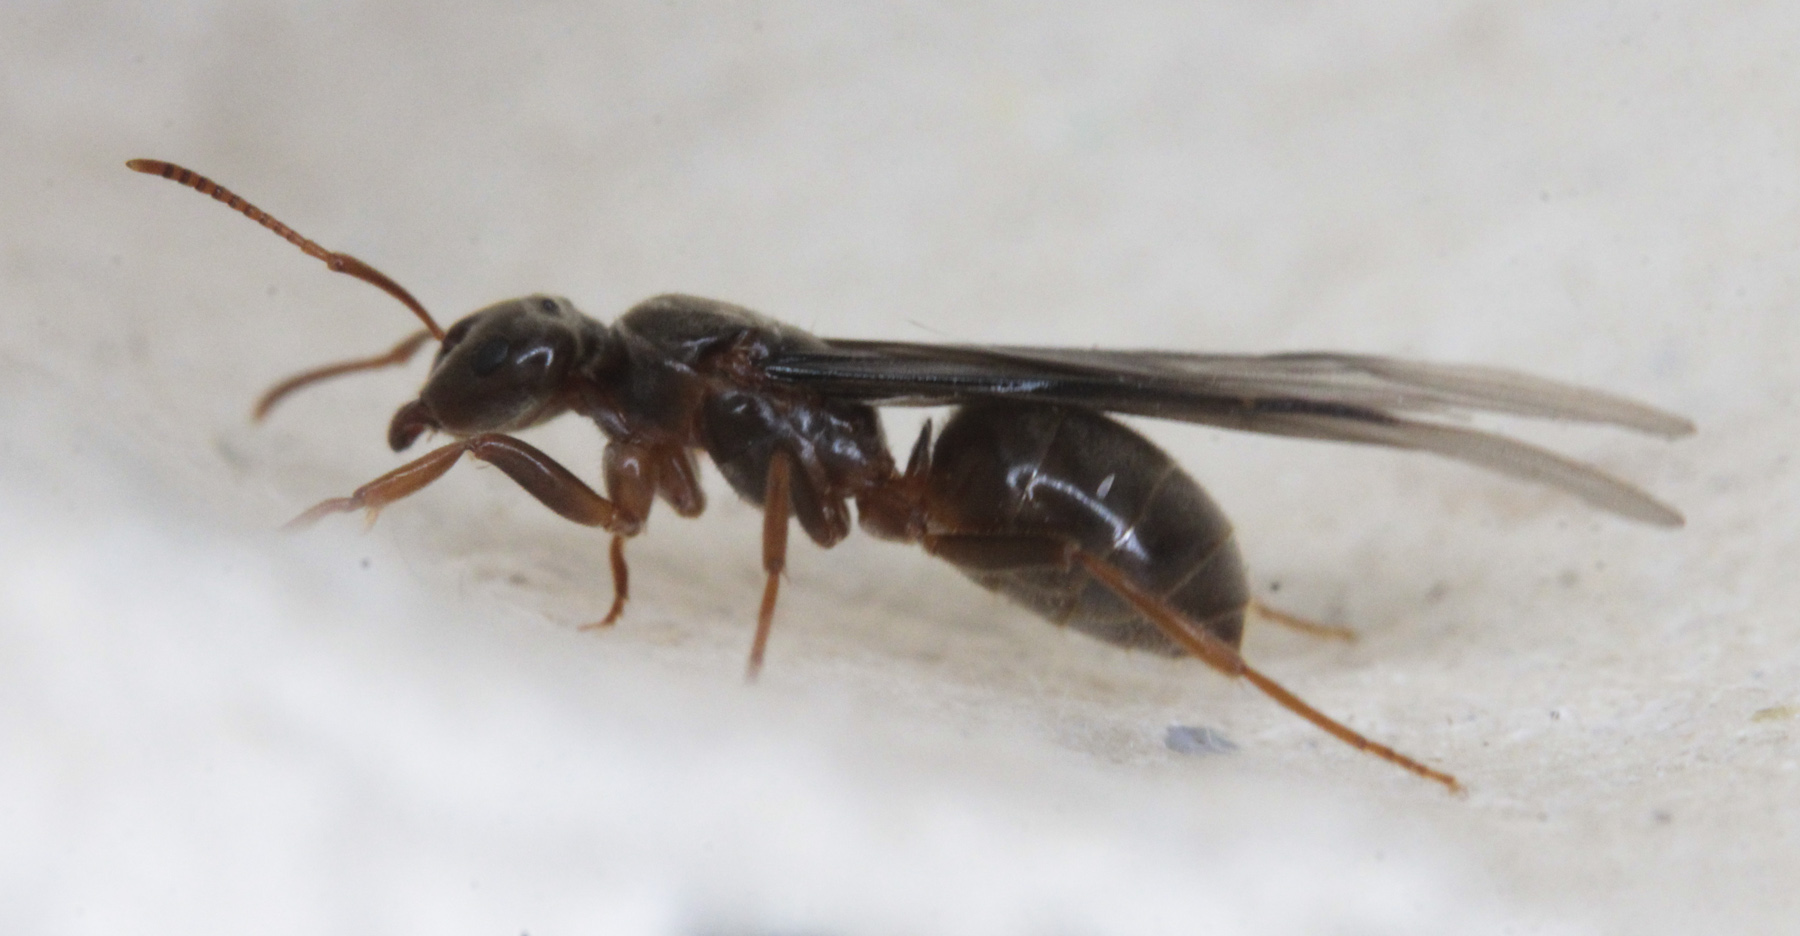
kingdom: Animalia
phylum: Arthropoda
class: Insecta
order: Hymenoptera
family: Formicidae
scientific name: Formicidae
